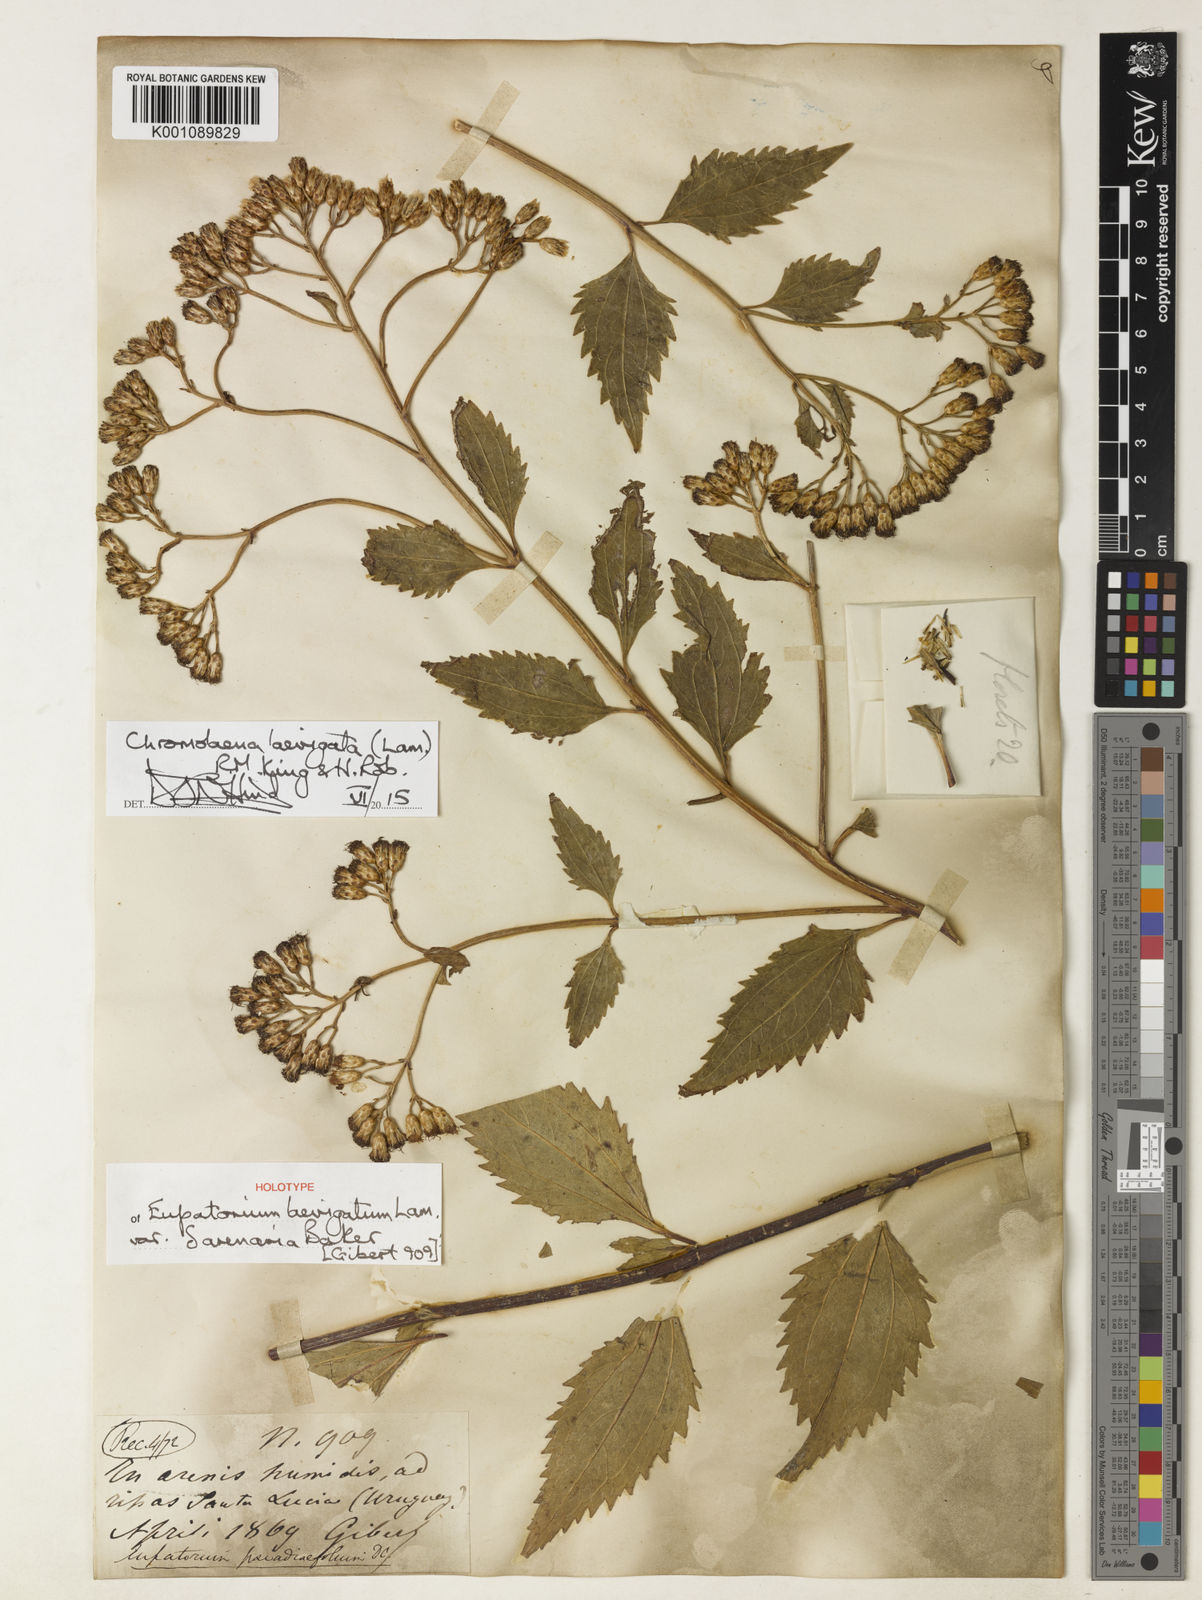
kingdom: Plantae
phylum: Tracheophyta
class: Magnoliopsida
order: Asterales
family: Asteraceae
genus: Chromolaena
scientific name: Chromolaena laevigata
